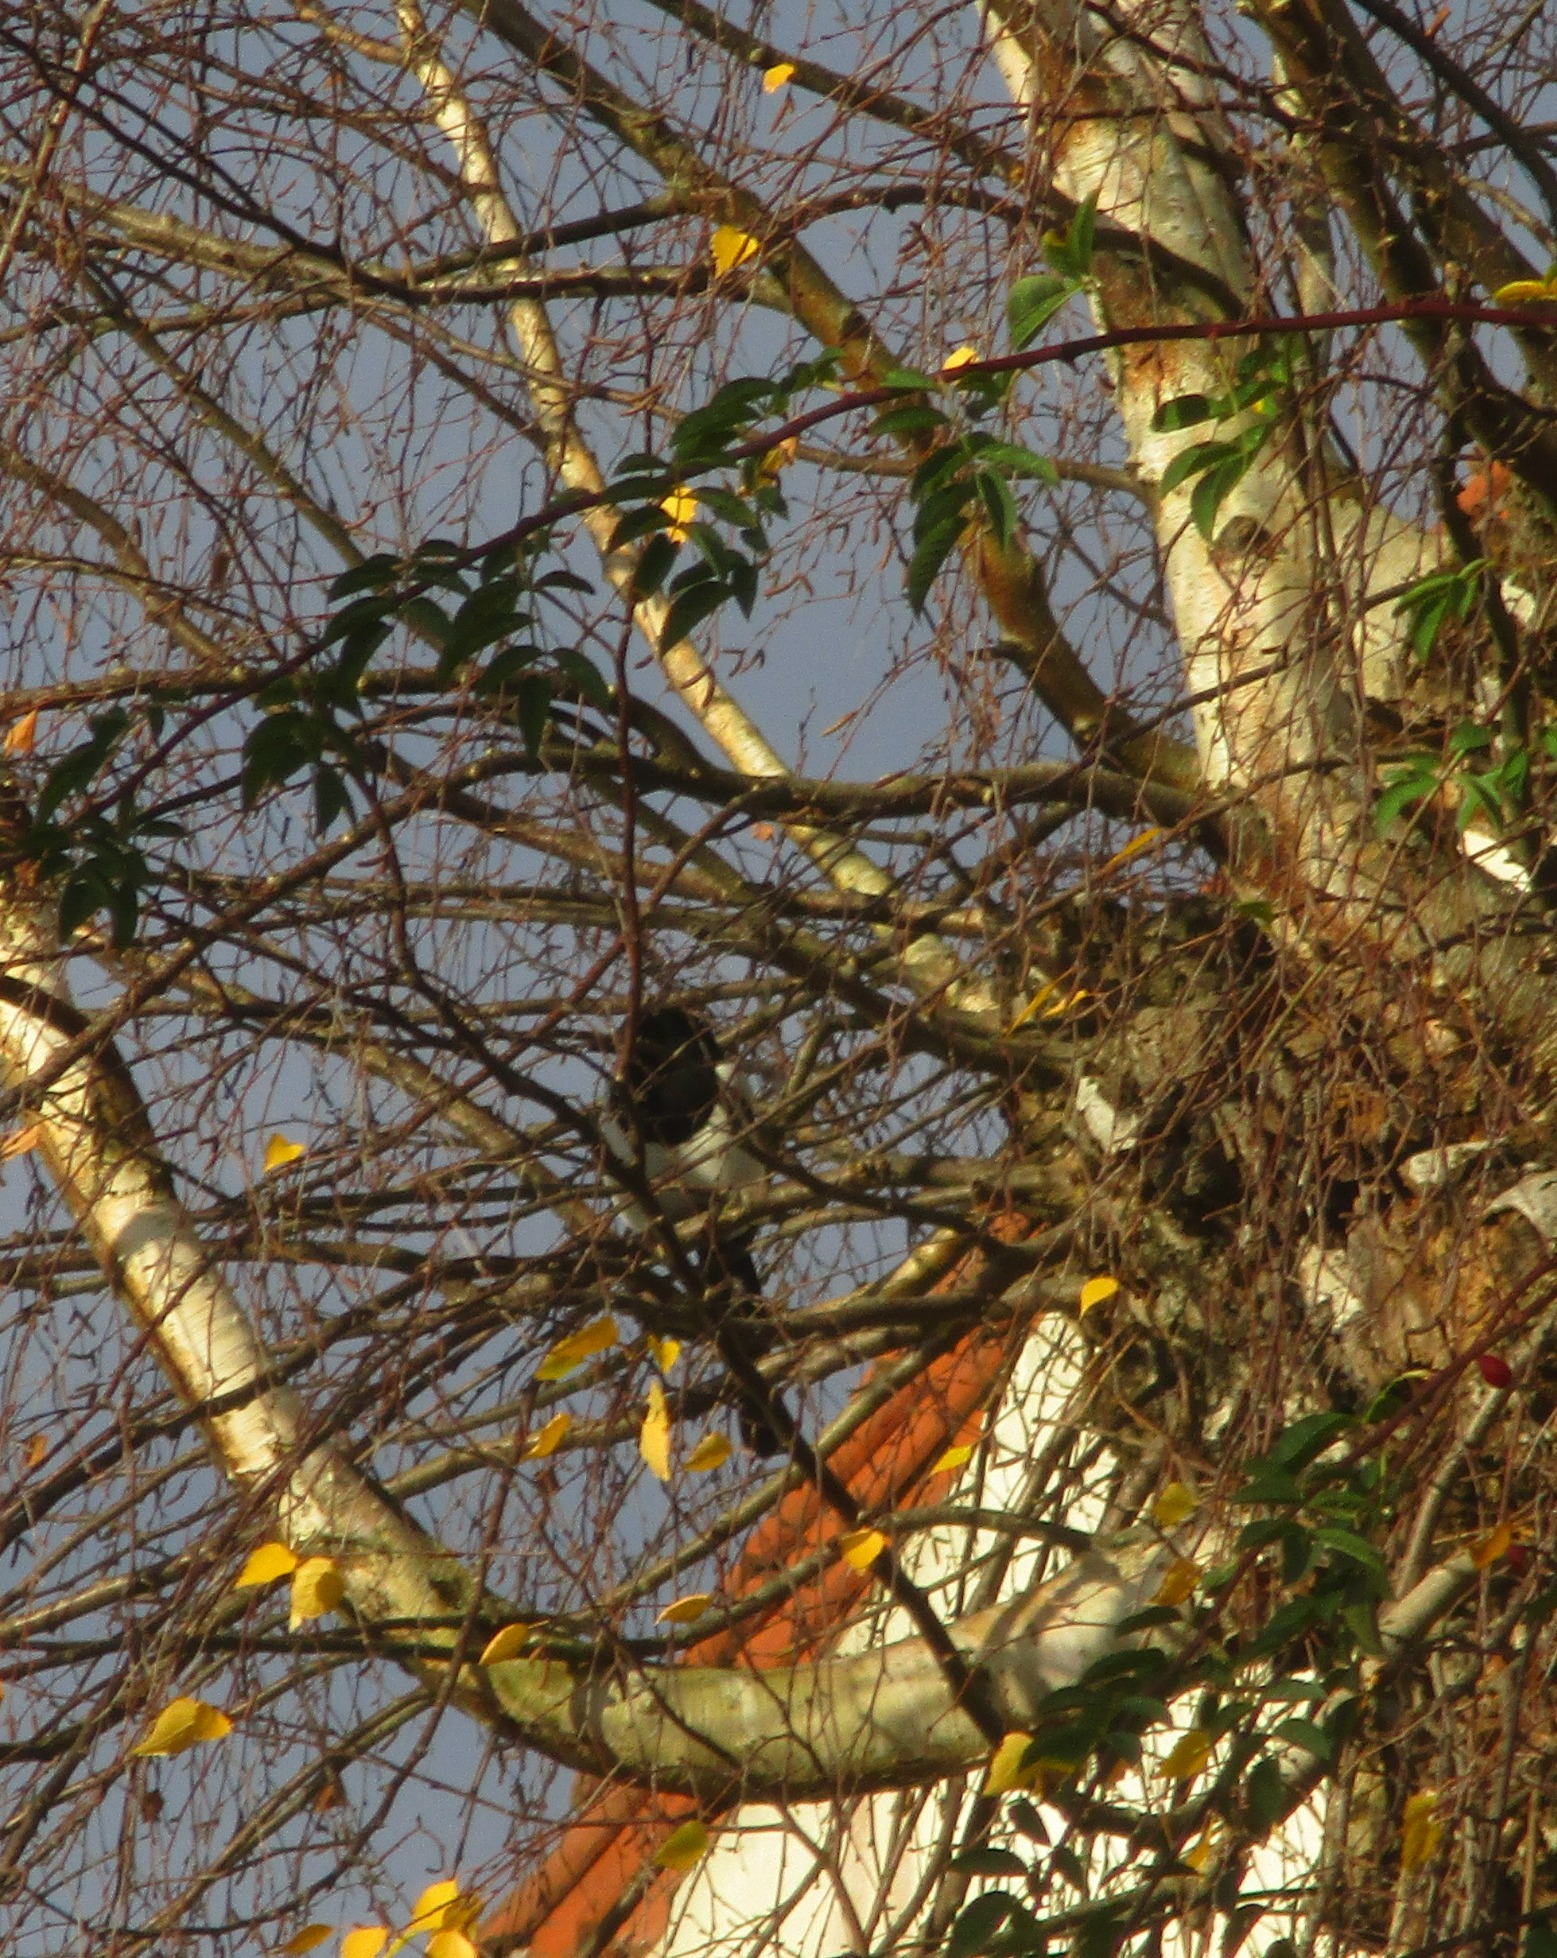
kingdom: Animalia
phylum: Chordata
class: Aves
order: Passeriformes
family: Corvidae
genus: Pica
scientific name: Pica pica
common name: Husskade
